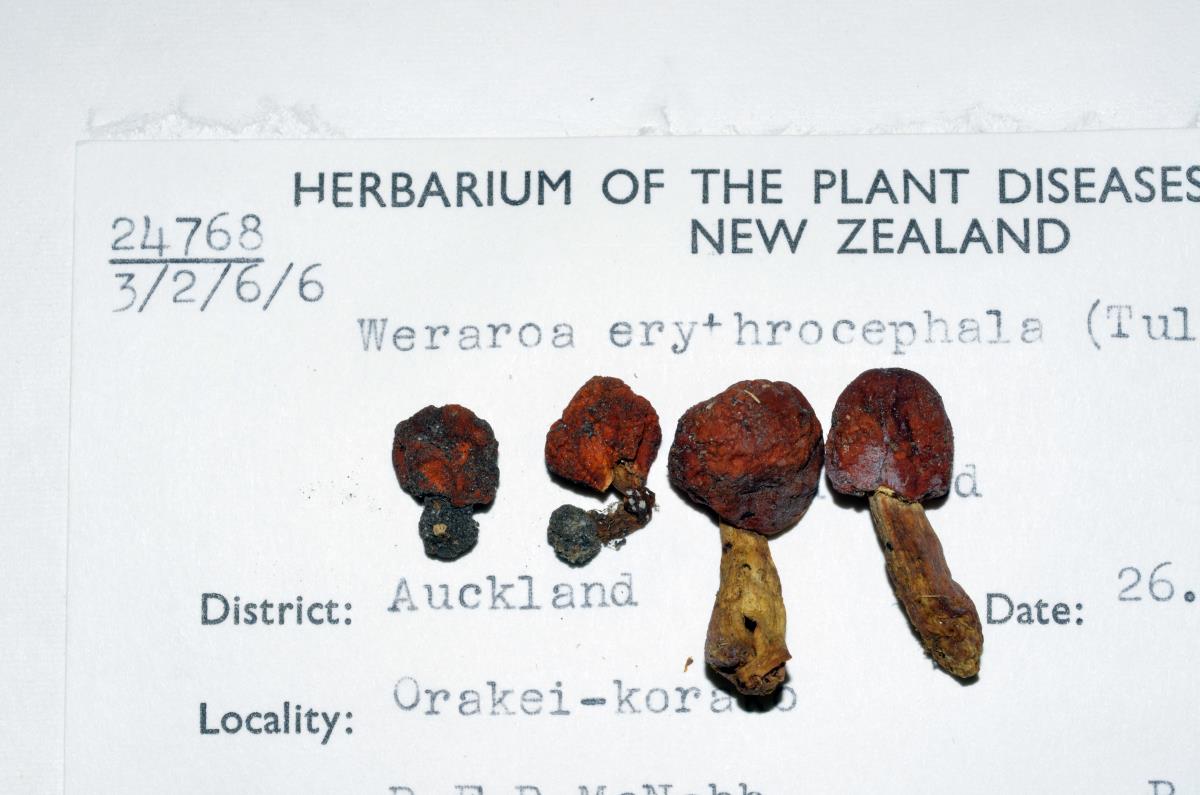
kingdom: Fungi
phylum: Basidiomycota
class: Agaricomycetes
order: Agaricales
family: Strophariaceae
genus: Leratiomyces
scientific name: Leratiomyces erythrocephalus
